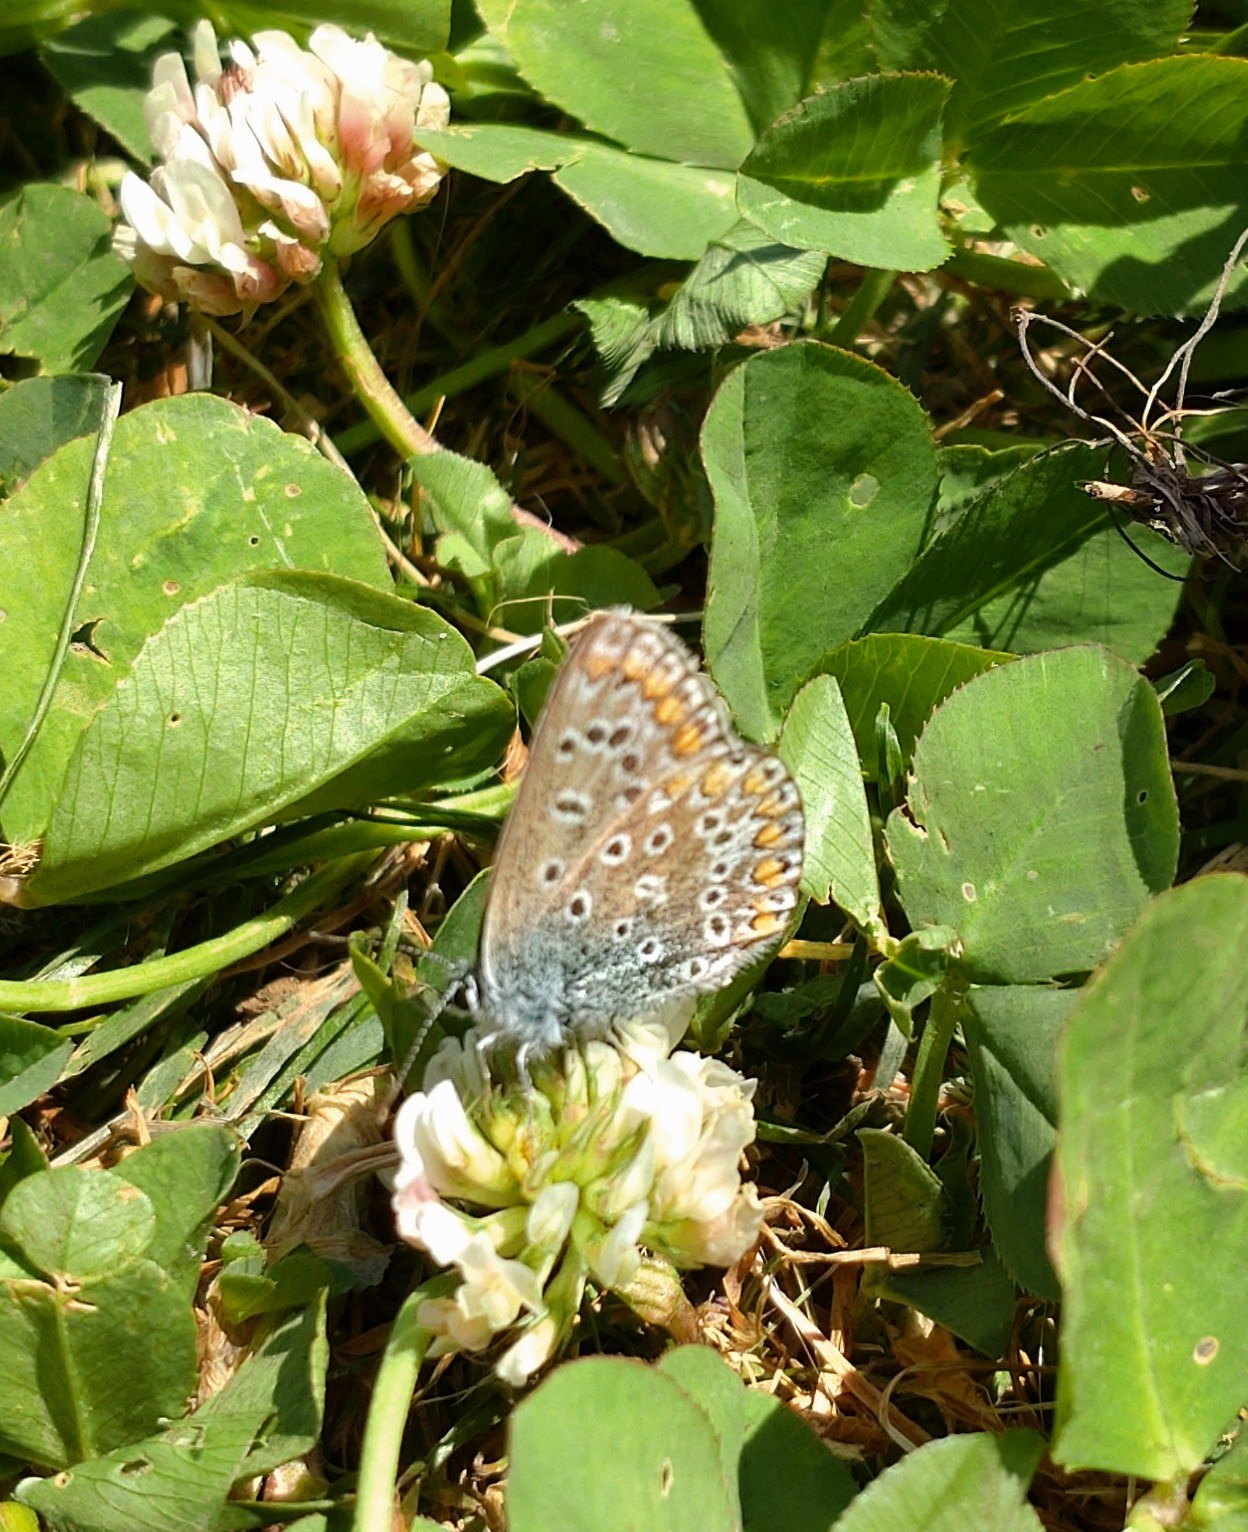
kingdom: Animalia
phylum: Arthropoda
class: Insecta
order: Lepidoptera
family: Lycaenidae
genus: Polyommatus
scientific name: Polyommatus icarus
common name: Almindelig blåfugl
